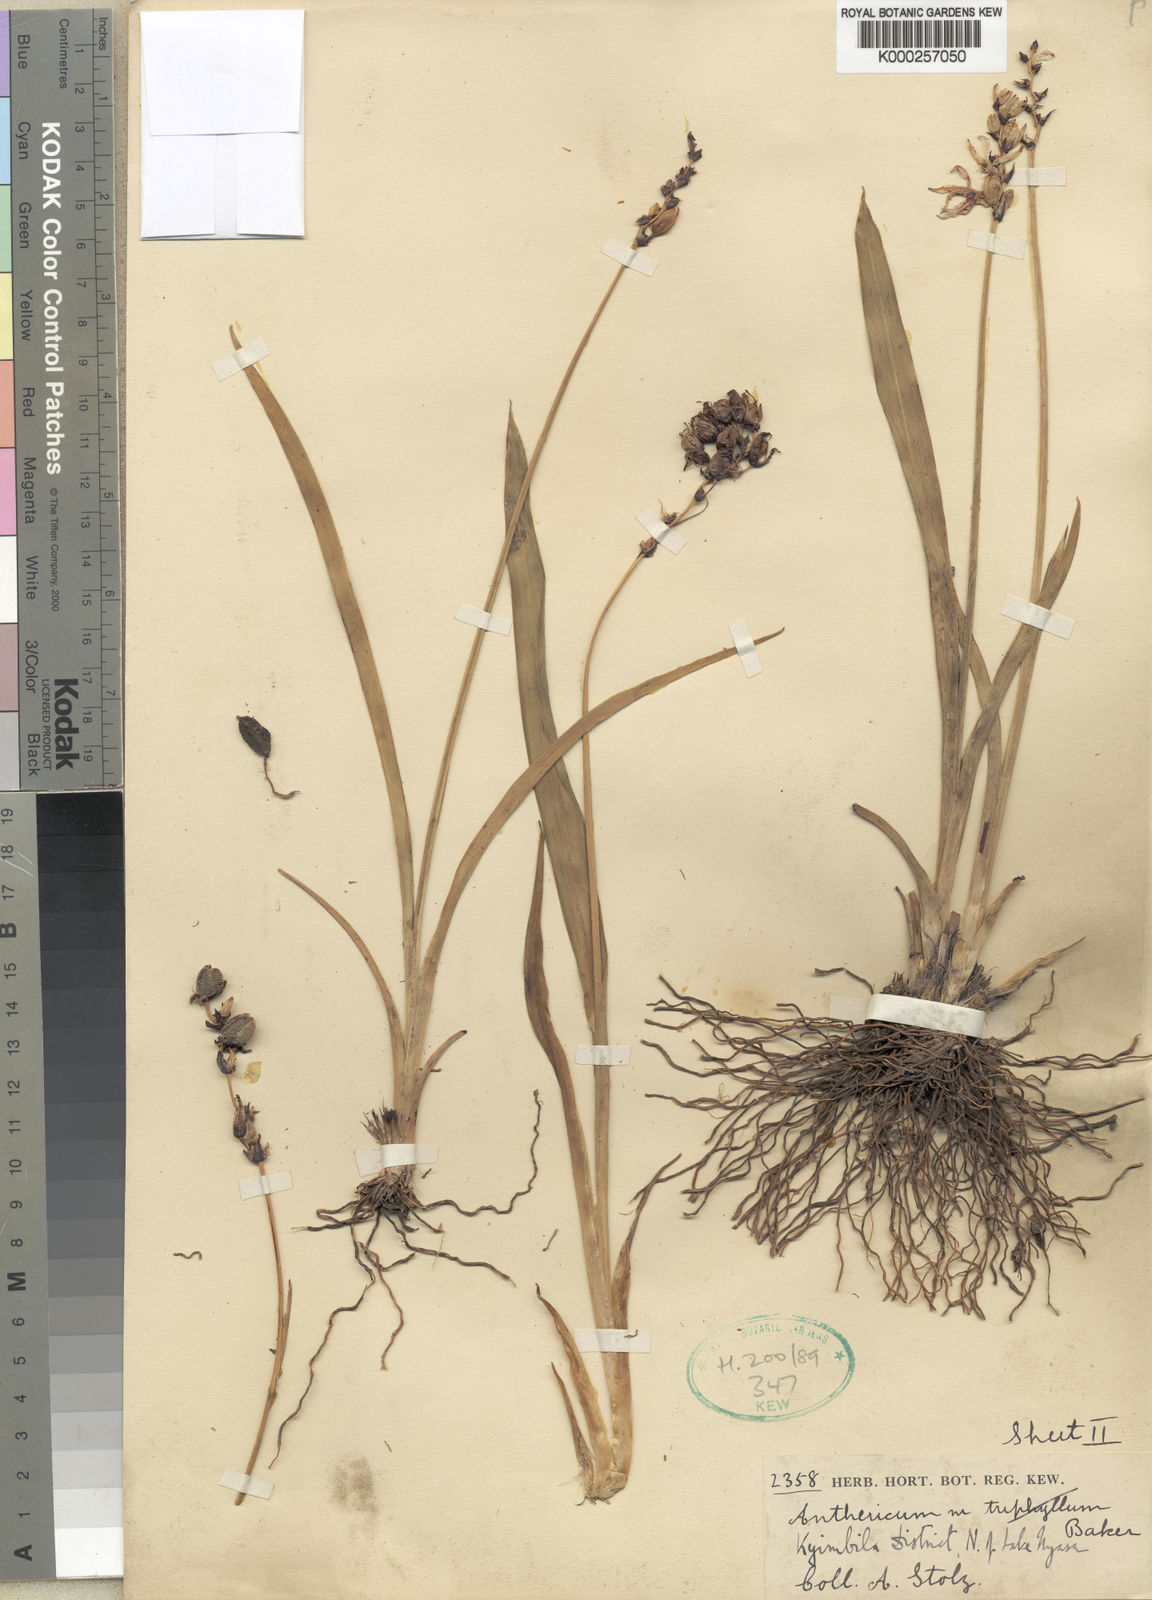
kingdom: Plantae
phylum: Tracheophyta
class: Liliopsida
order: Asparagales
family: Asparagaceae
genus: Chlorophytum
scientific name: Chlorophytum cameronii
